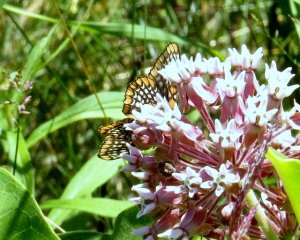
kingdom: Animalia
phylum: Arthropoda
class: Insecta
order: Lepidoptera
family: Nymphalidae
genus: Euphydryas
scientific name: Euphydryas phaeton
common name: Baltimore Checkerspot
